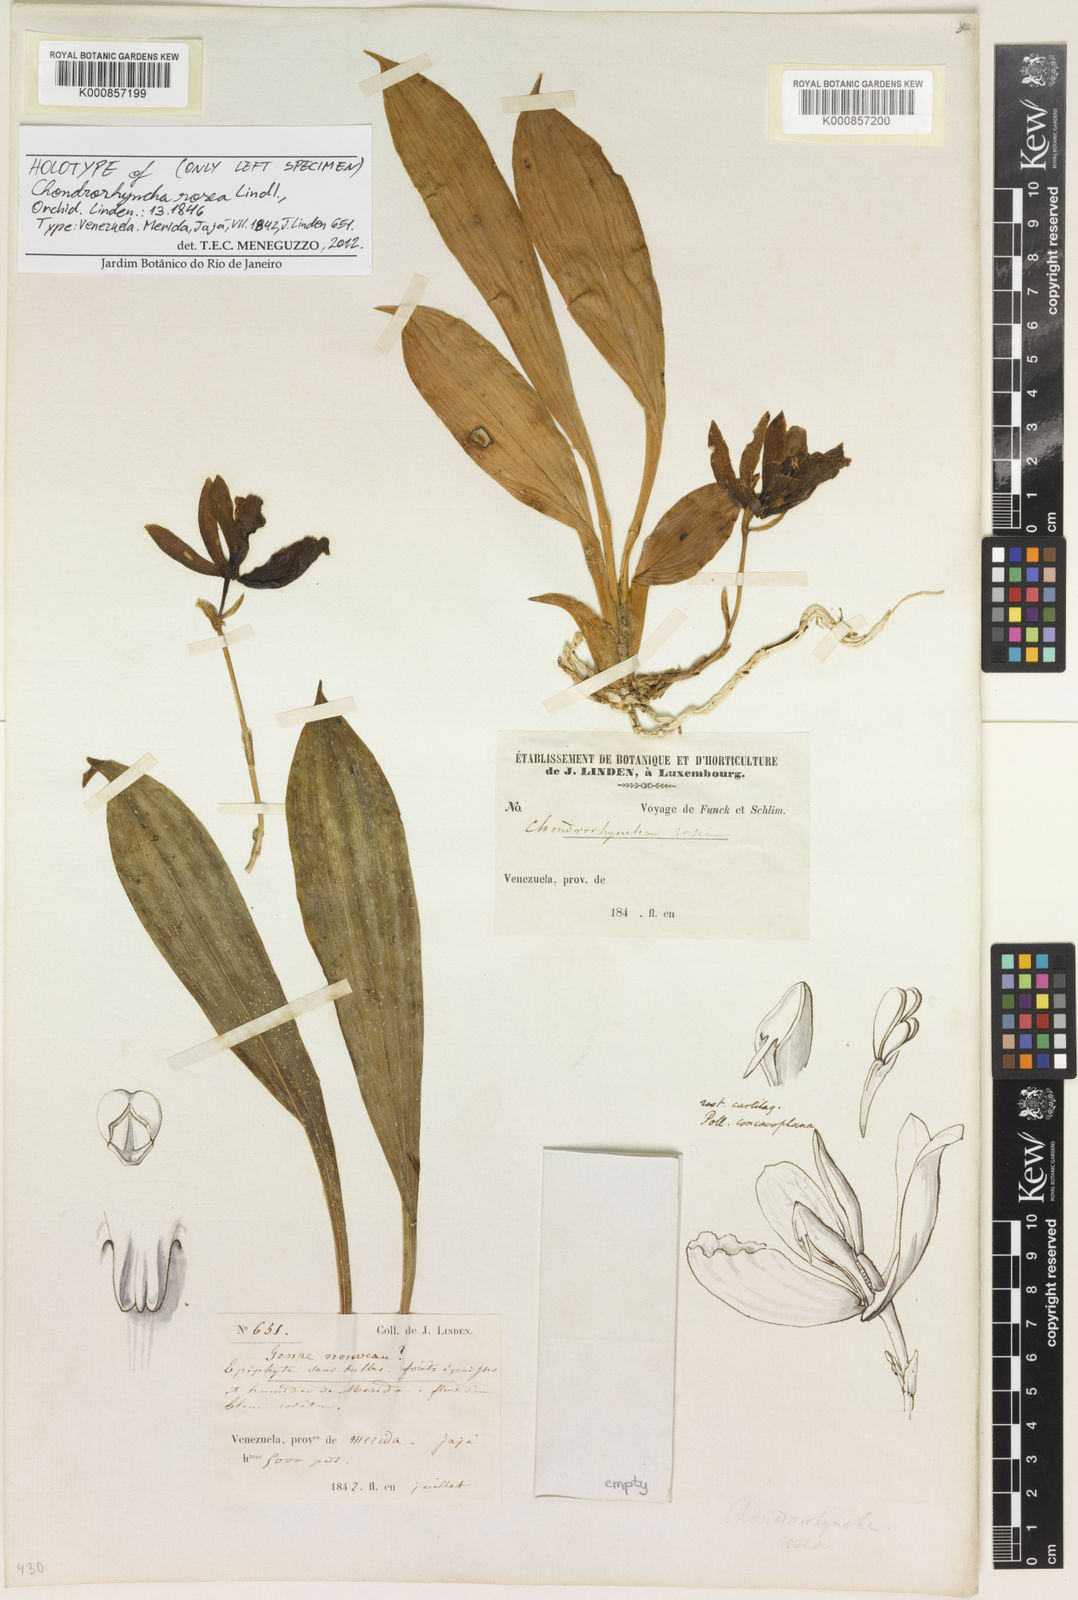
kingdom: Plantae
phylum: Tracheophyta
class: Liliopsida
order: Asparagales
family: Orchidaceae
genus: Chondrorhyncha
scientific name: Chondrorhyncha rosea
